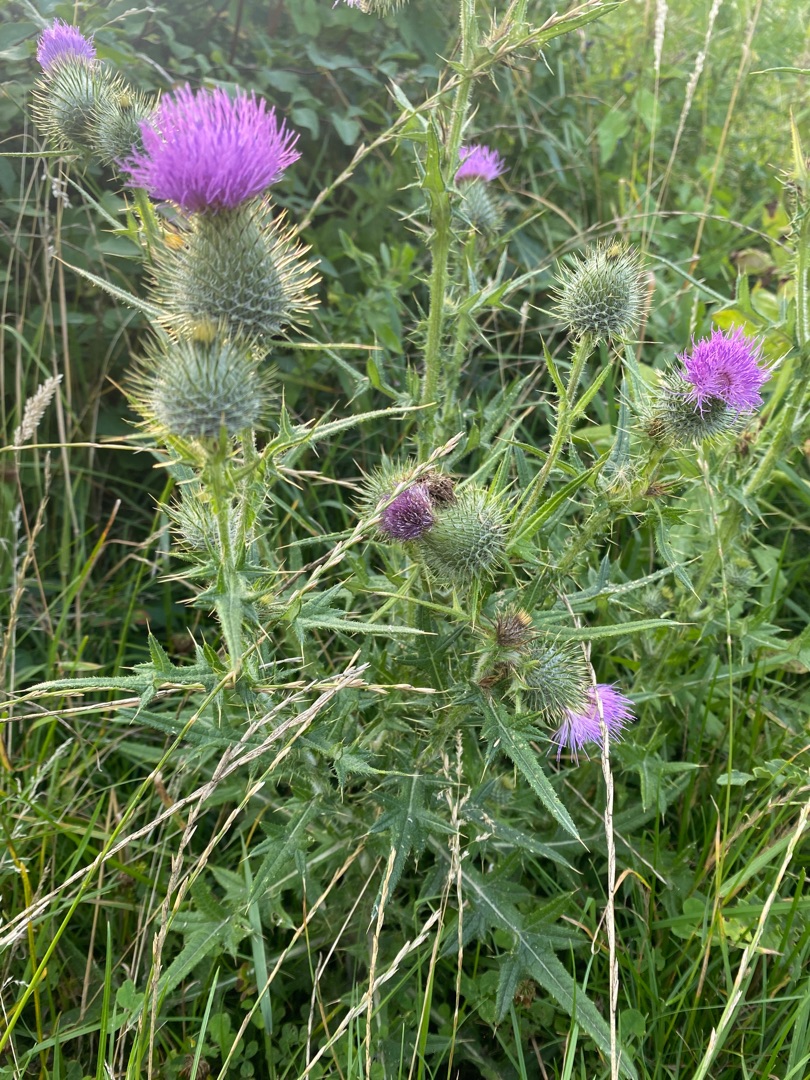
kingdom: Plantae
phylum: Tracheophyta
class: Magnoliopsida
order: Asterales
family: Asteraceae
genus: Cirsium
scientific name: Cirsium vulgare
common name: Horse-tidsel
